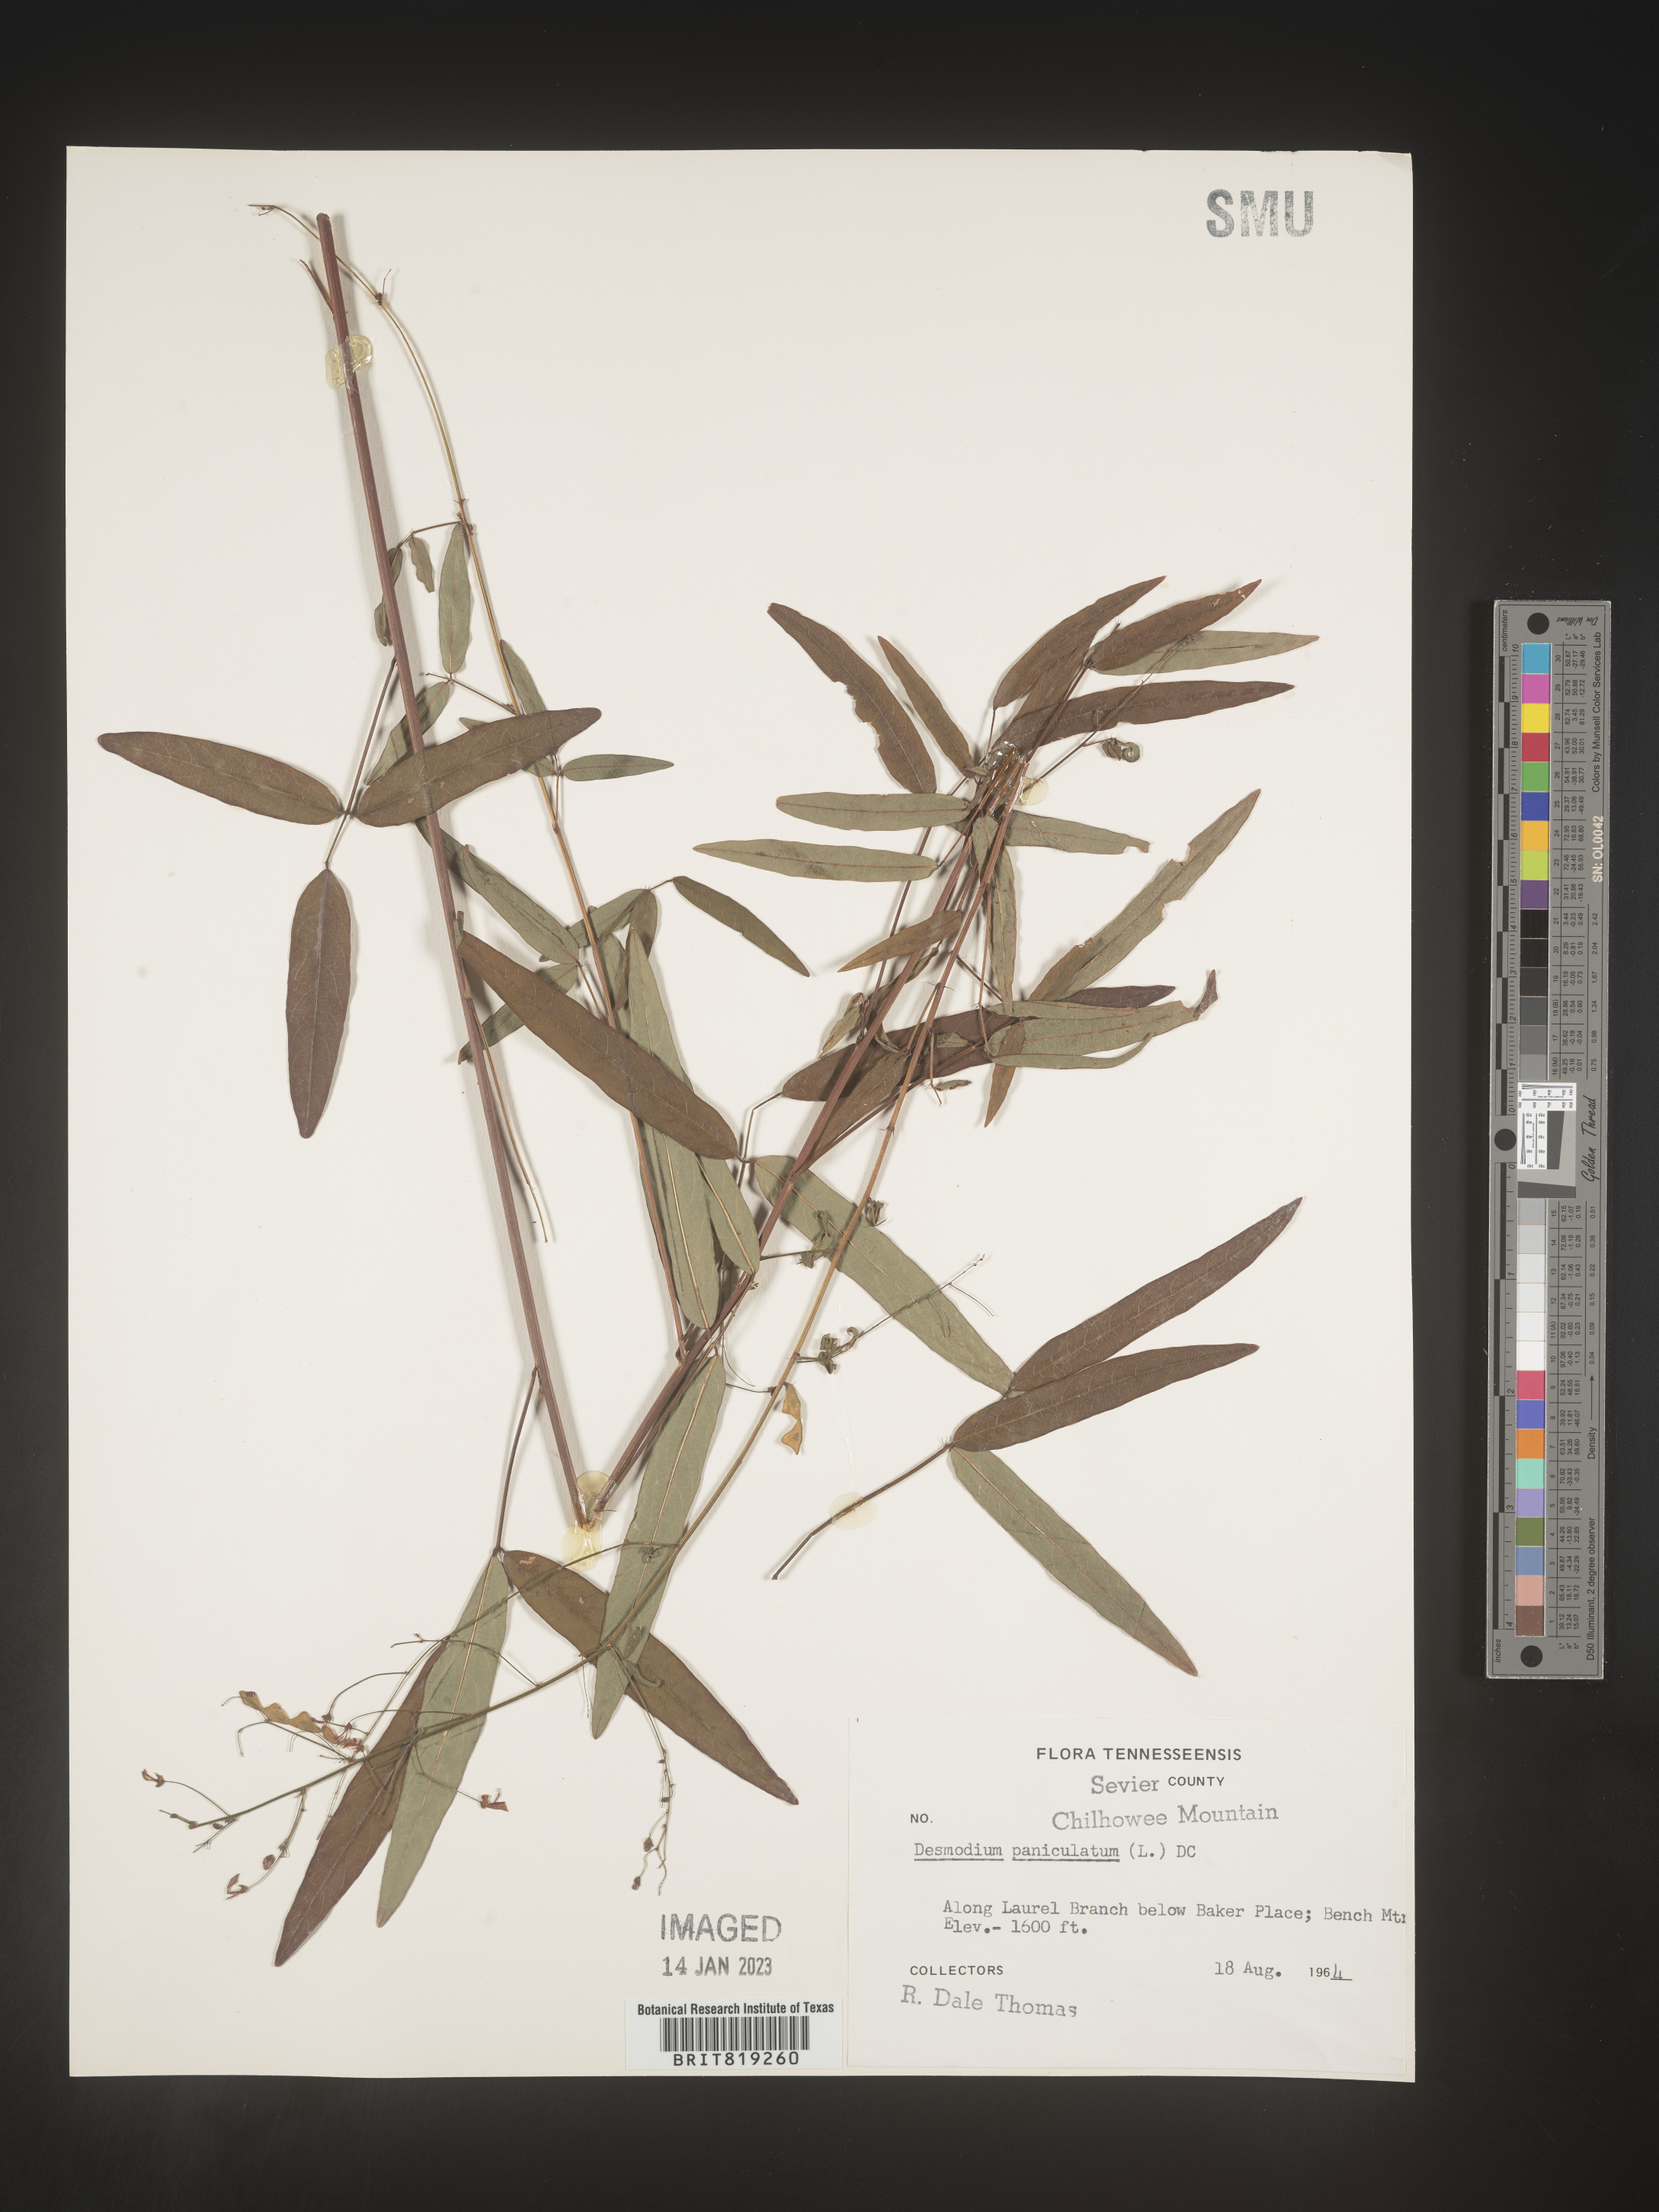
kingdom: Plantae
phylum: Tracheophyta
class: Magnoliopsida
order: Fabales
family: Fabaceae
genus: Desmodium
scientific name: Desmodium paniculatum
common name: Panicled tick-clover
